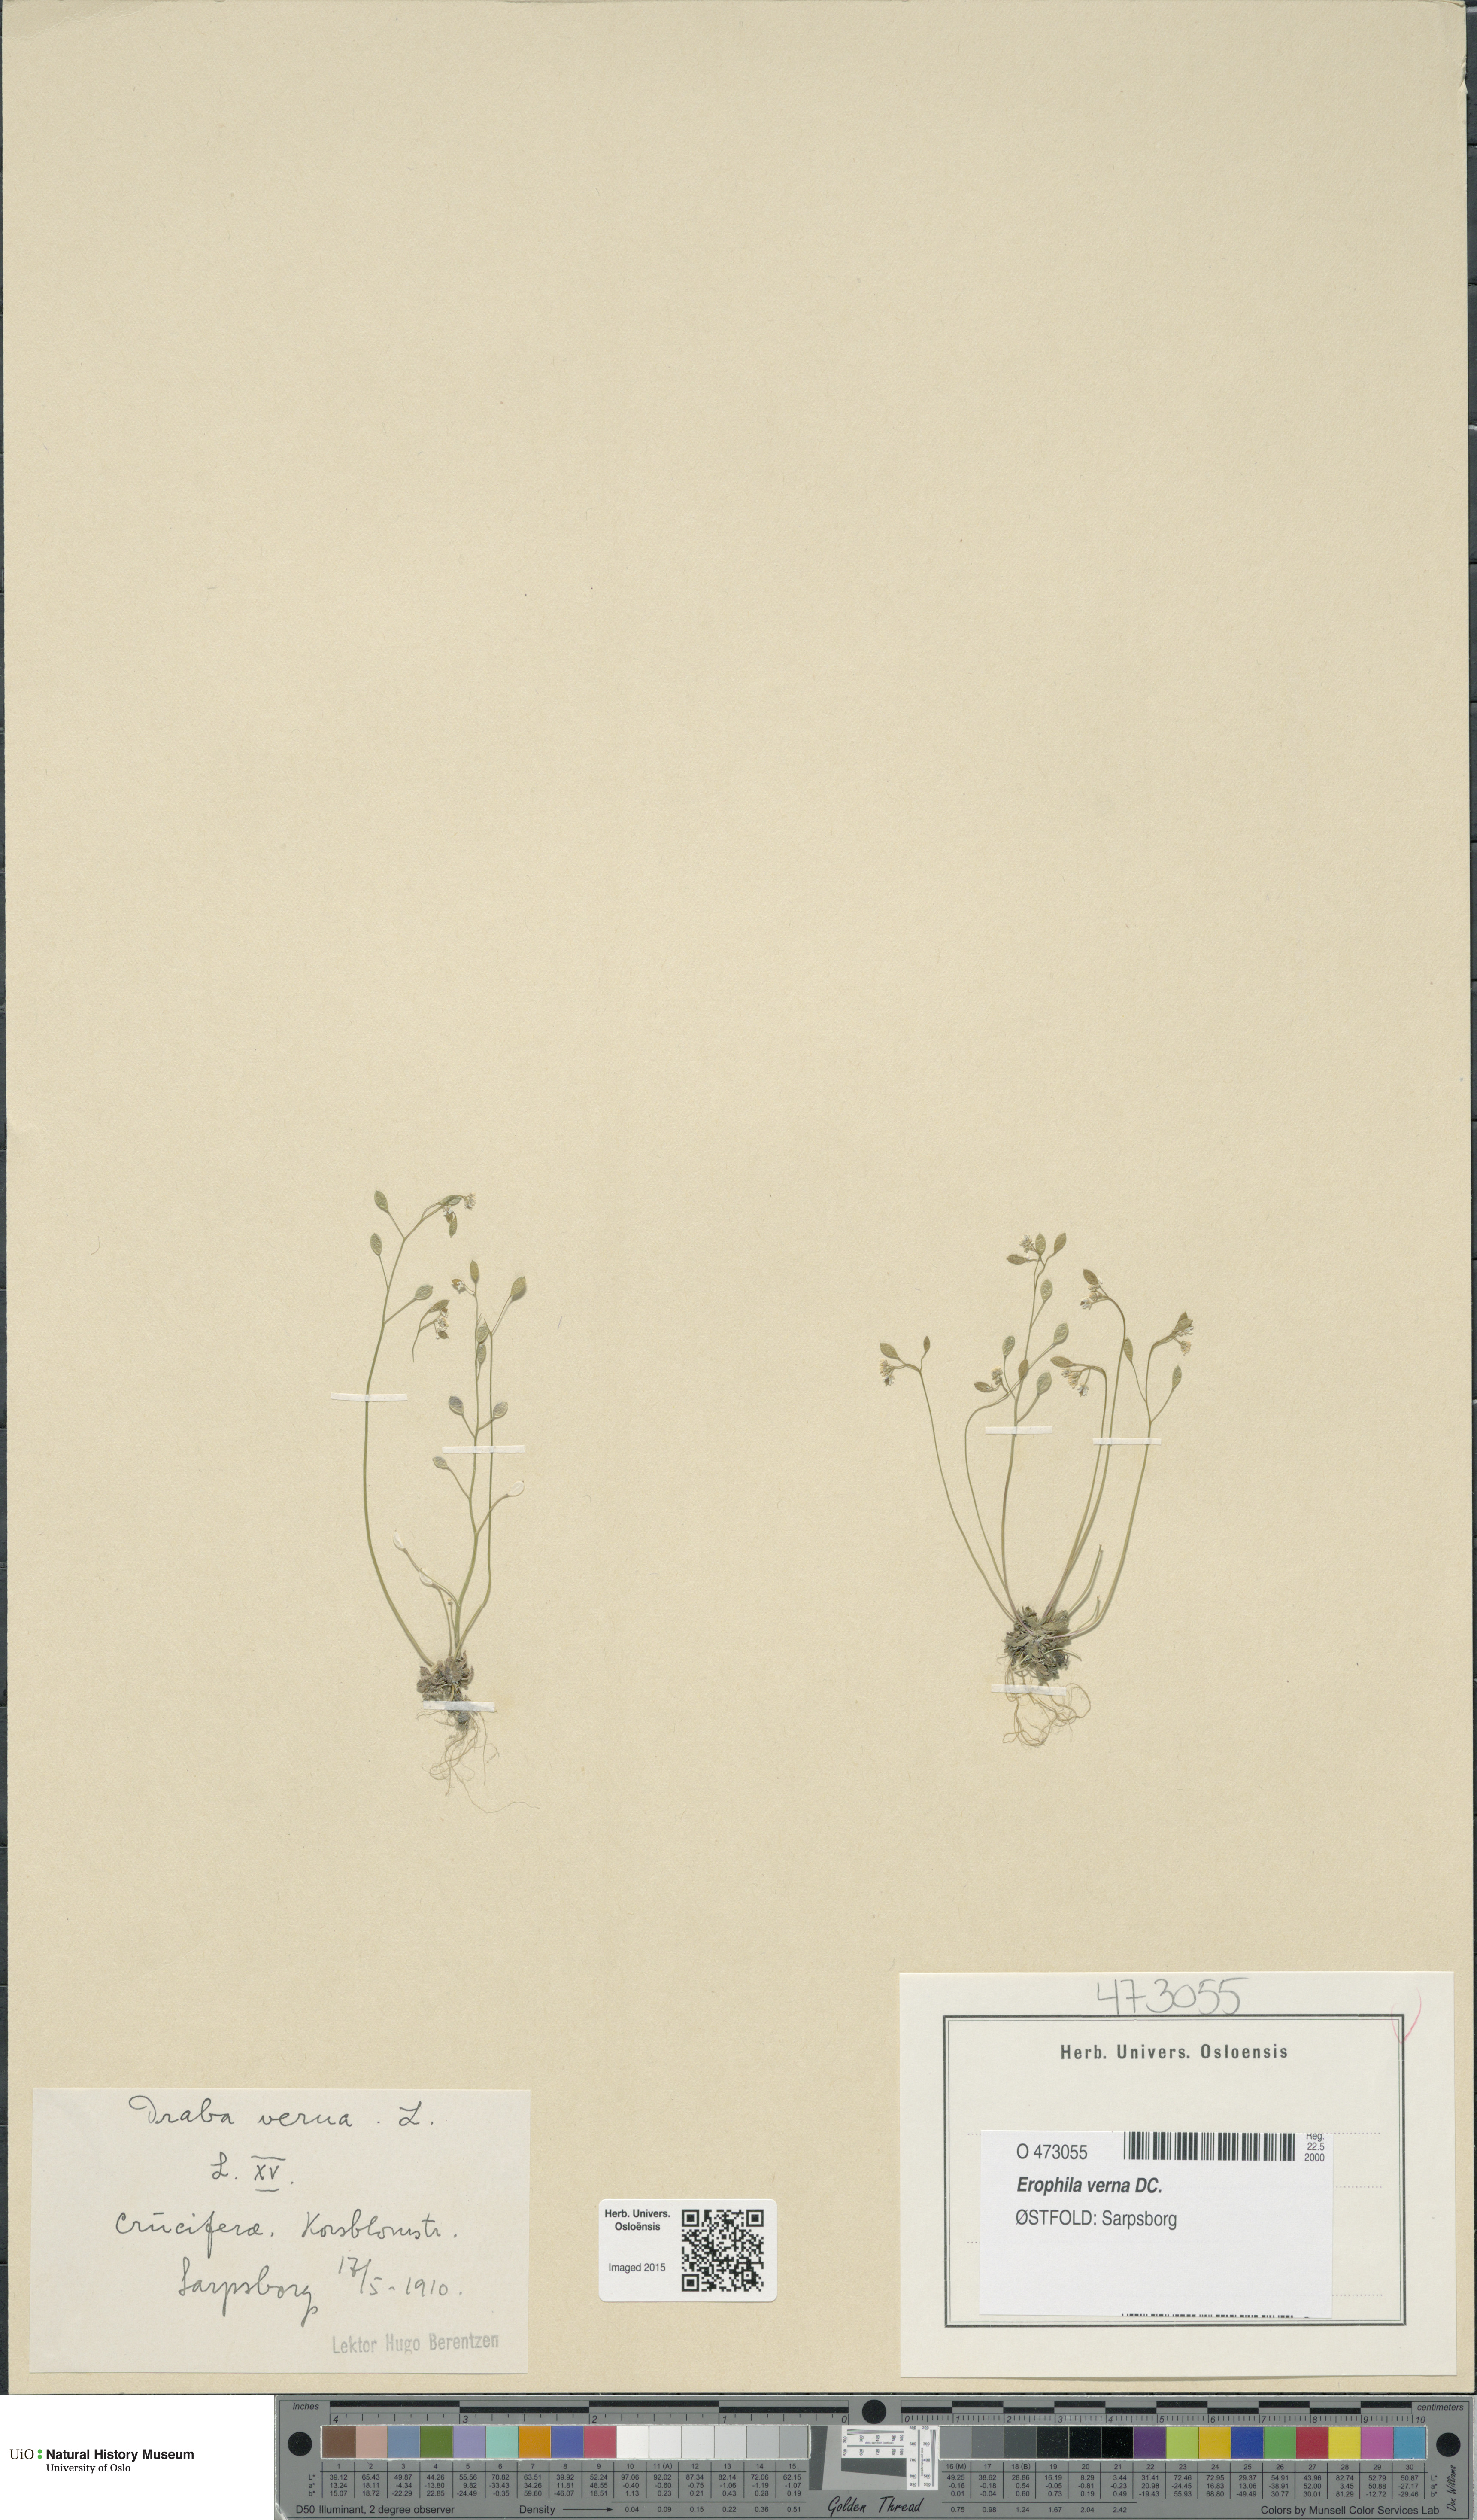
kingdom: Plantae
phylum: Tracheophyta
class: Magnoliopsida
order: Brassicales
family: Brassicaceae
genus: Draba
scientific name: Draba verna
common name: Spring draba
